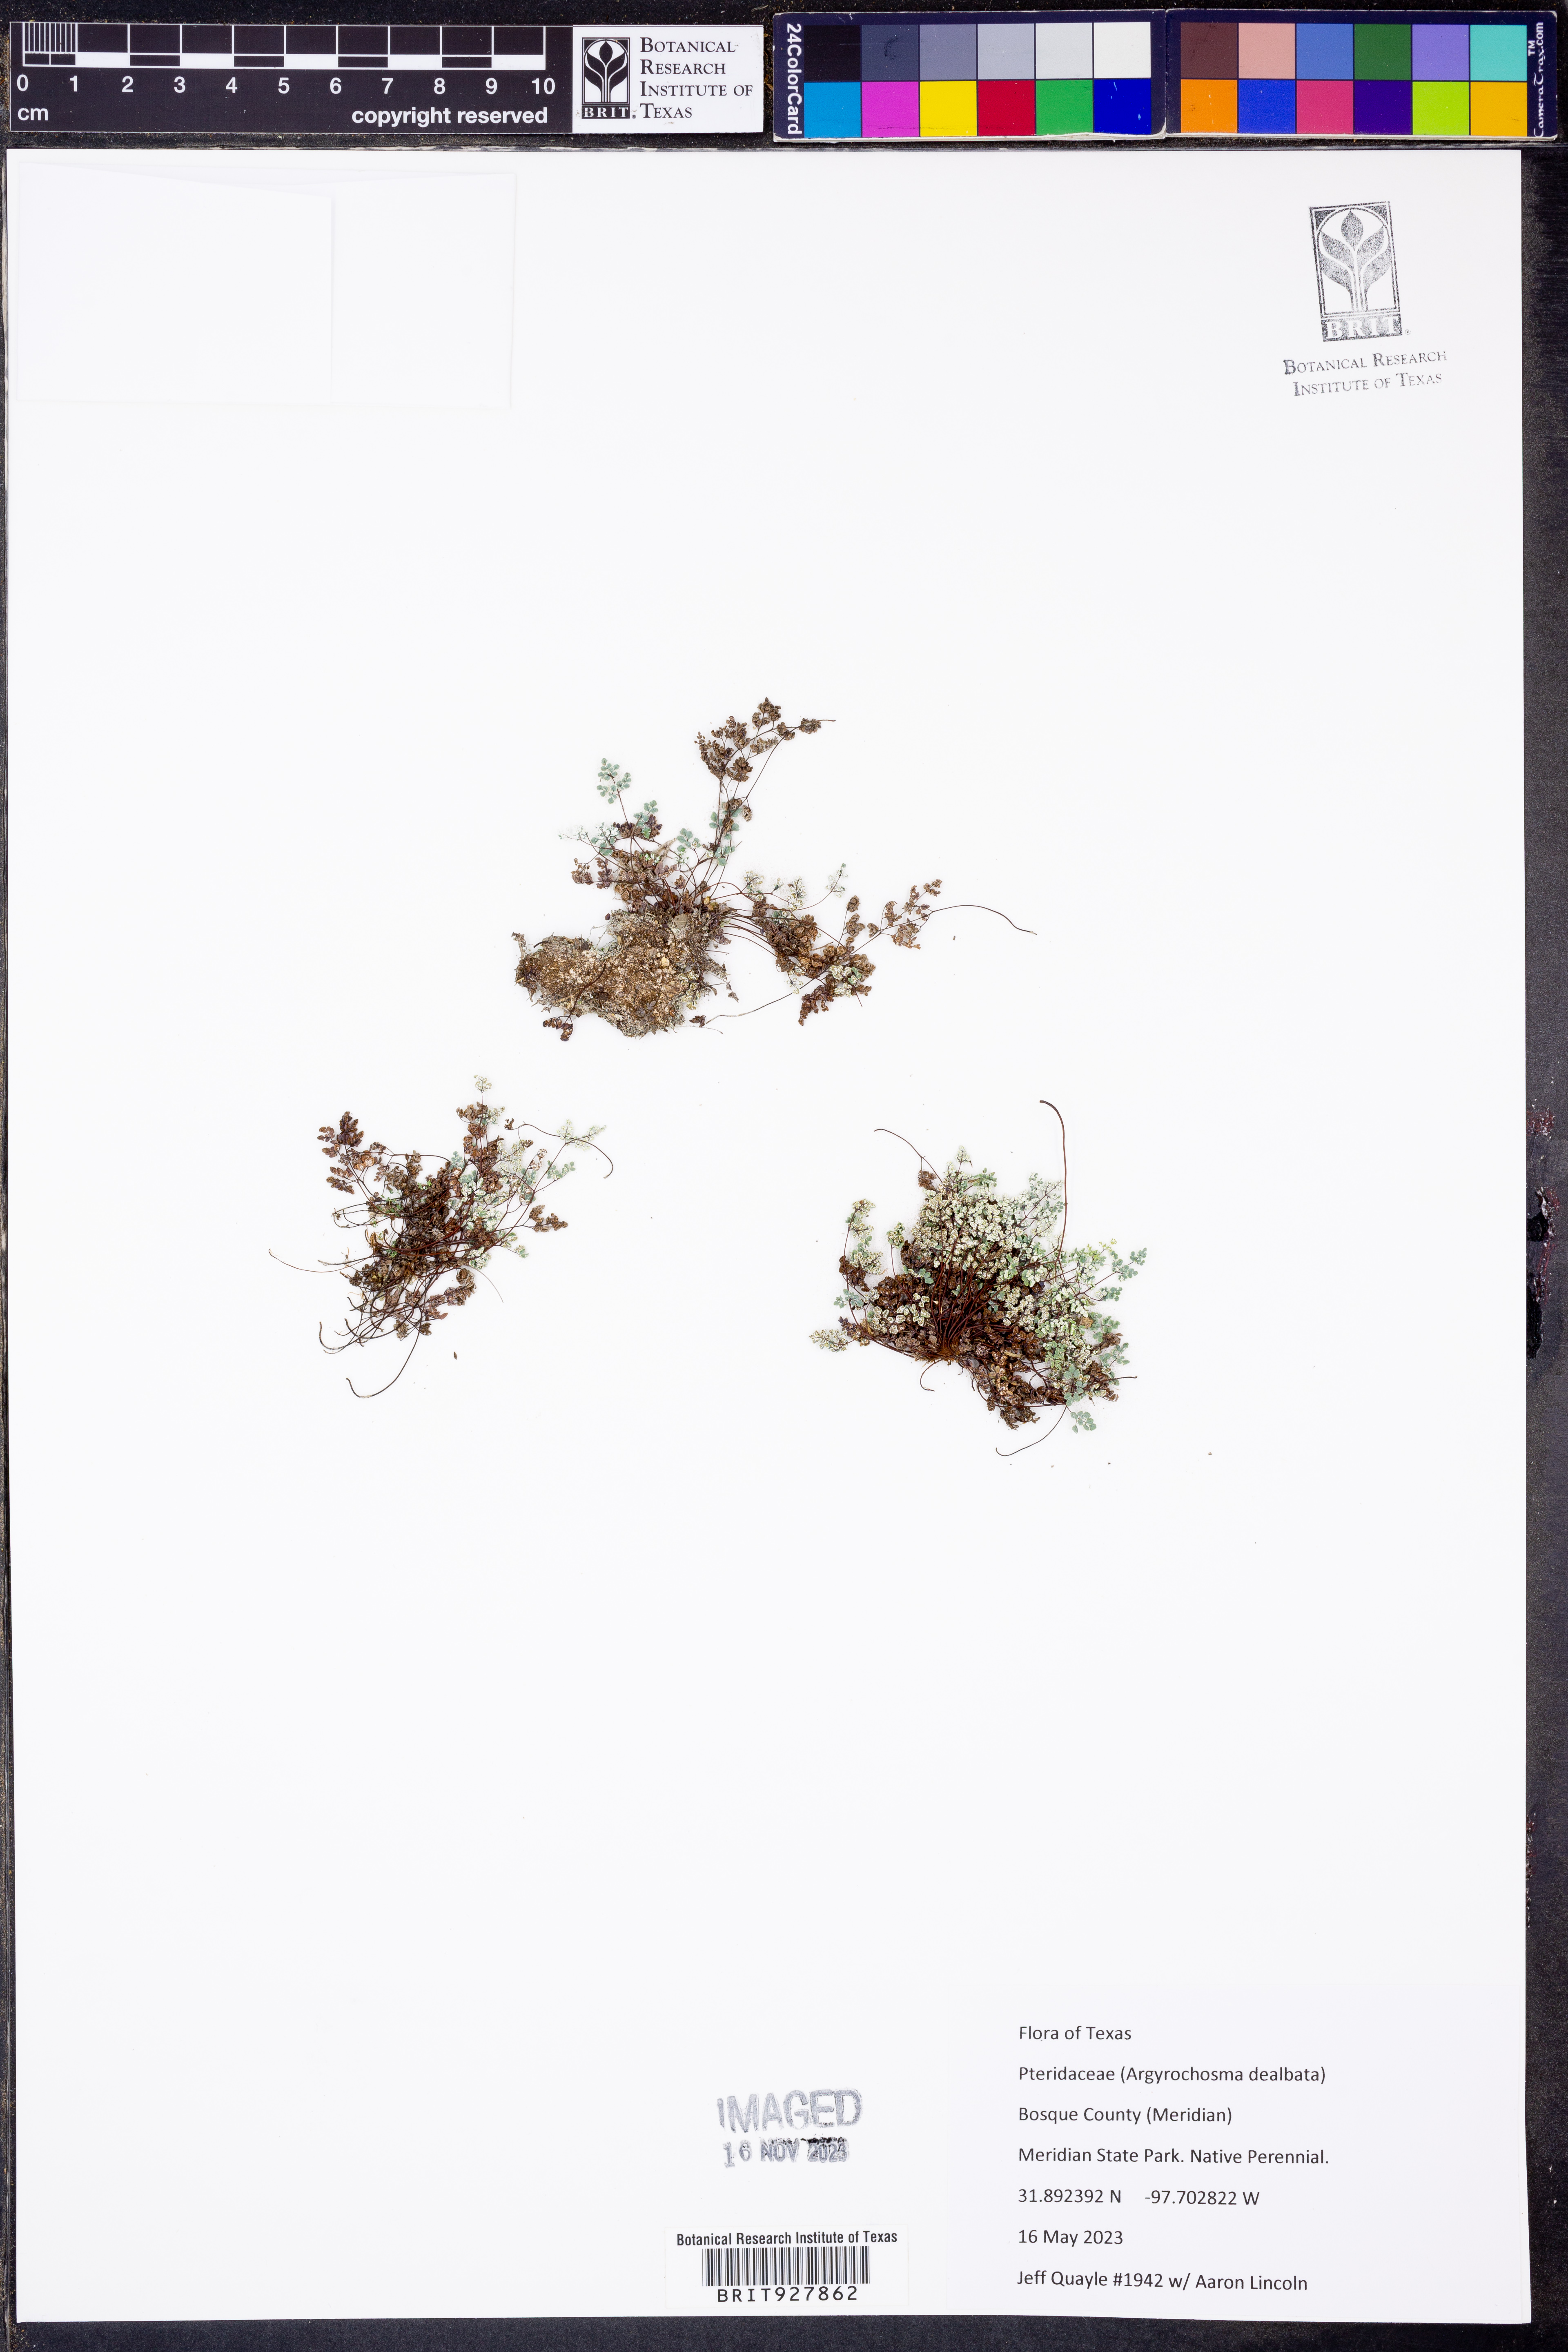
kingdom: Plantae
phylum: Tracheophyta
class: Polypodiopsida
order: Polypodiales
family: Pteridaceae
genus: Argyrochosma
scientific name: Argyrochosma dealbata
